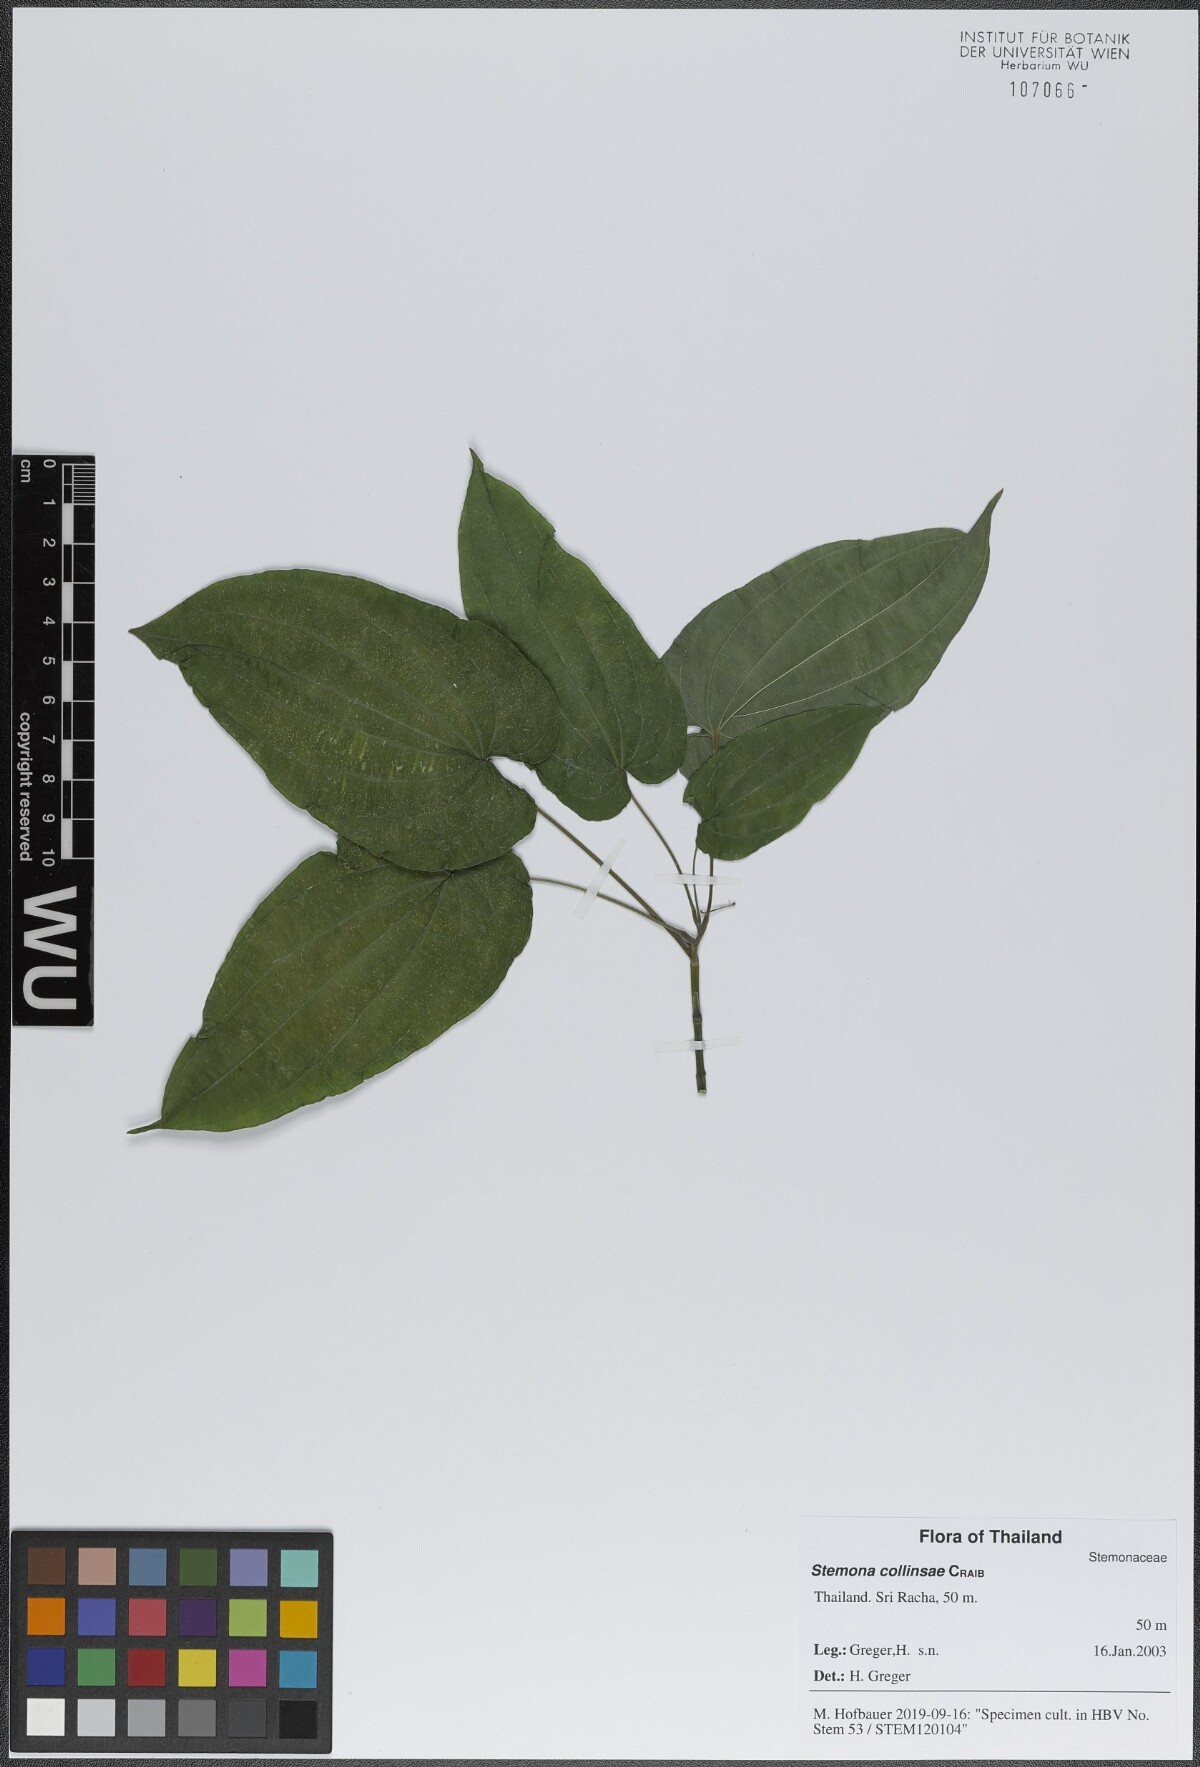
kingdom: Plantae
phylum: Tracheophyta
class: Liliopsida
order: Pandanales
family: Stemonaceae
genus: Stemona
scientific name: Stemona collinsae
